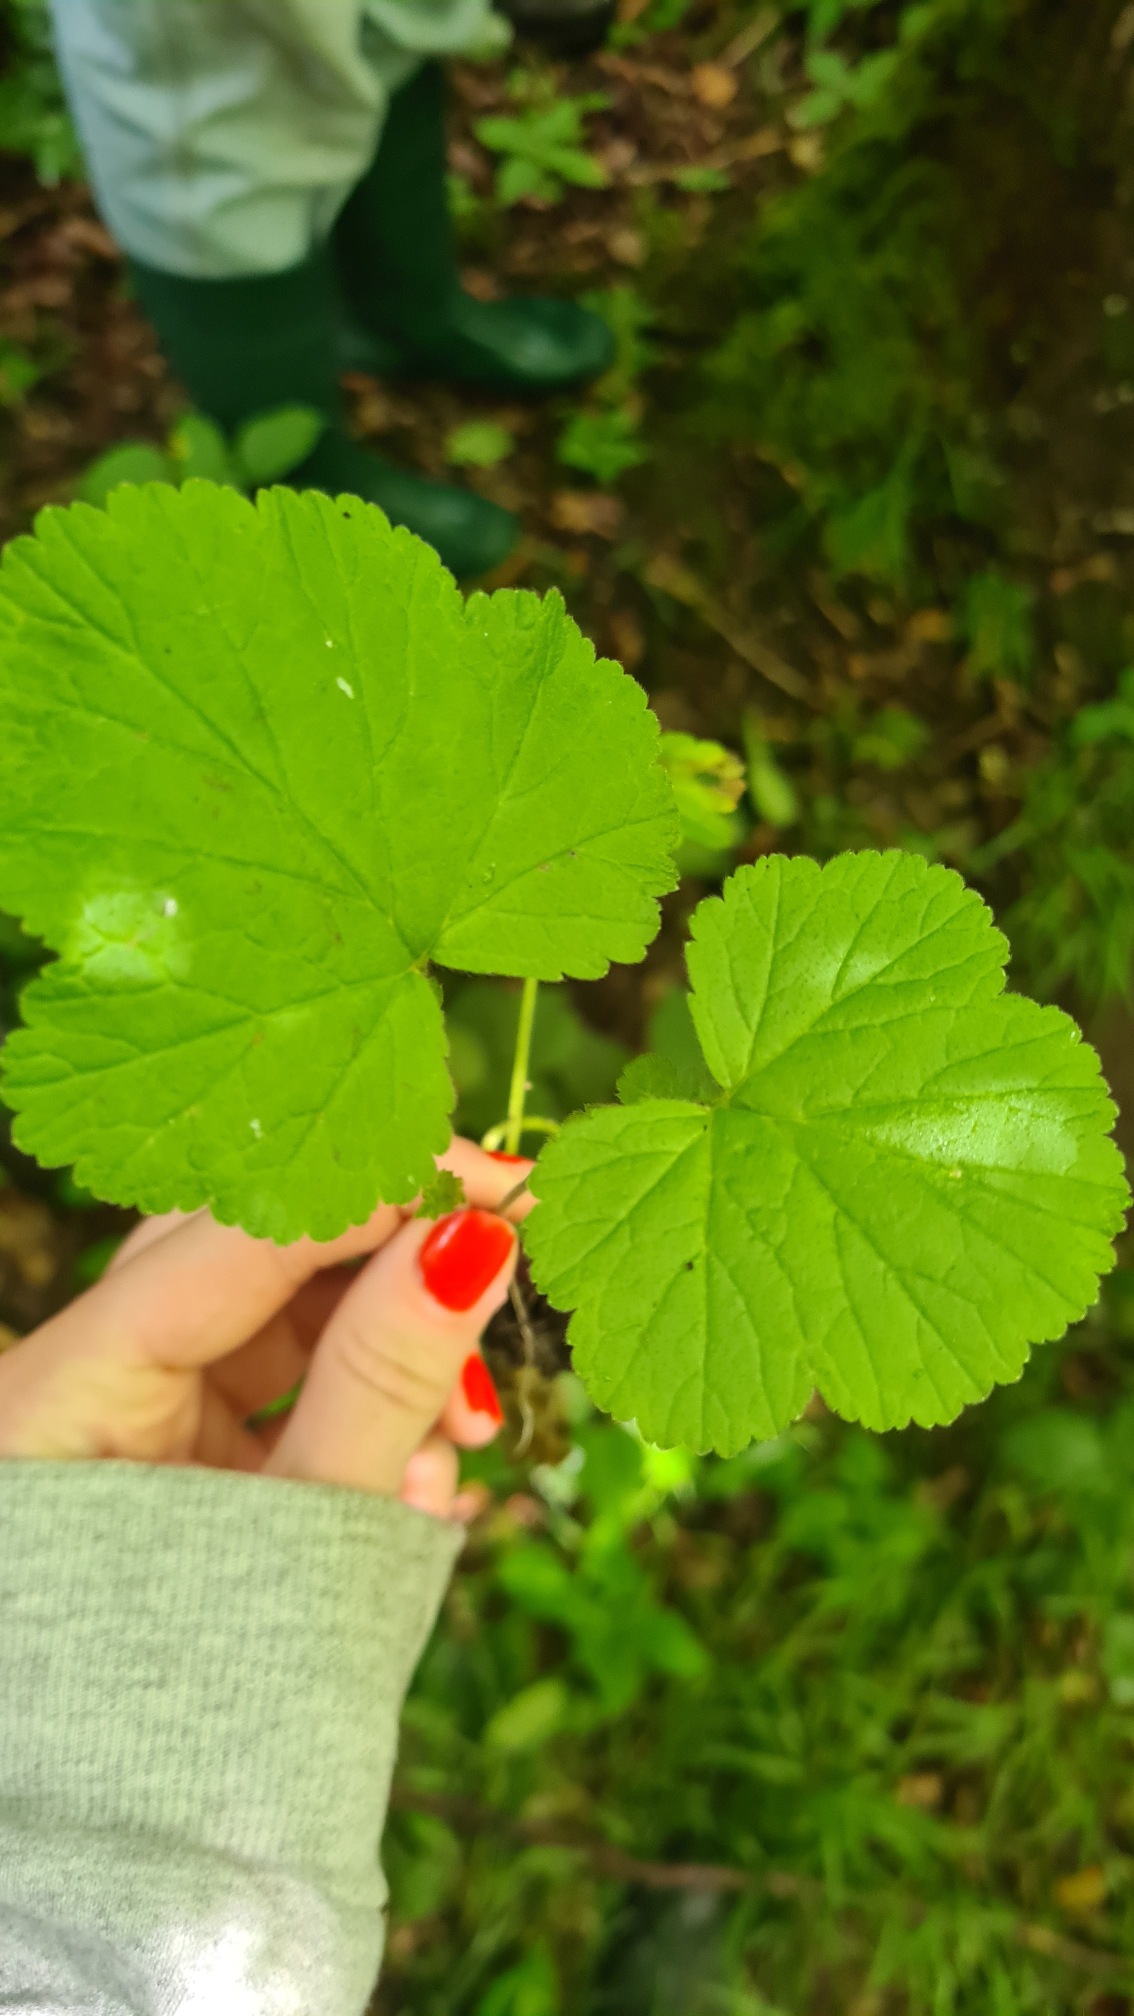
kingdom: Plantae
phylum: Tracheophyta
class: Magnoliopsida
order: Rosales
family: Rosaceae
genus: Geum
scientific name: Geum
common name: Nellikerodslægten
